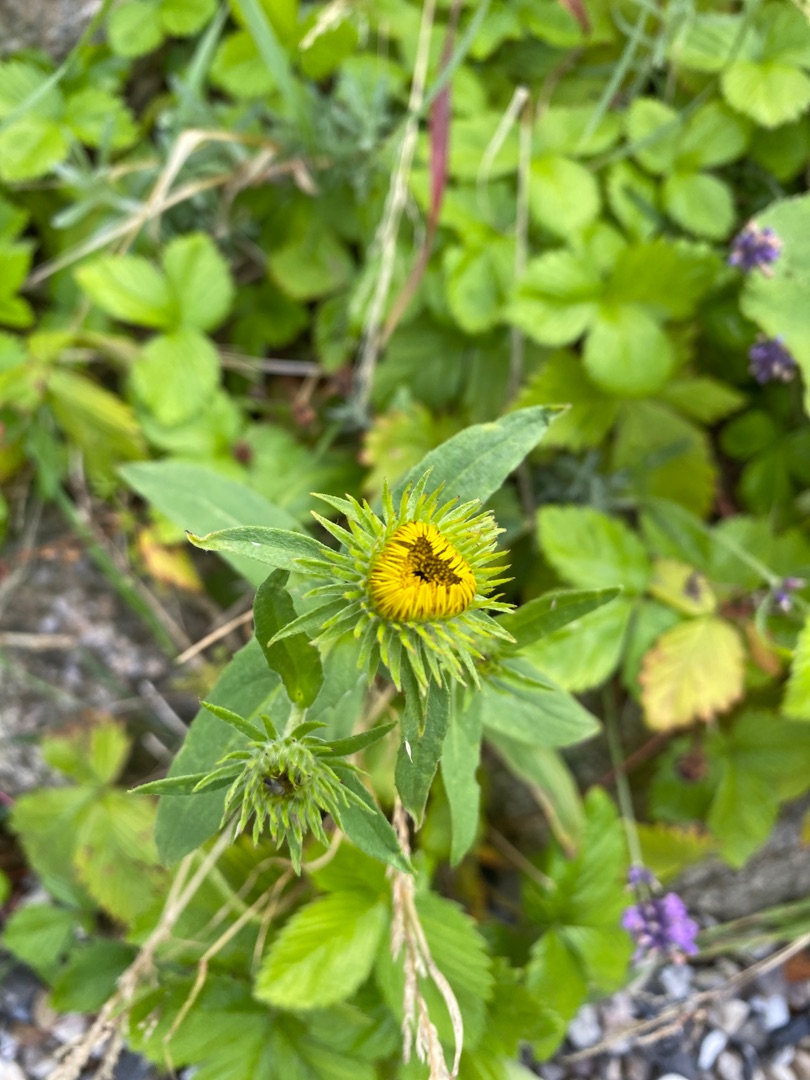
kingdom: Plantae
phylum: Tracheophyta
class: Magnoliopsida
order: Asterales
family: Asteraceae
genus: Pentanema
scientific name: Pentanema britannicum
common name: Soløje-alant
